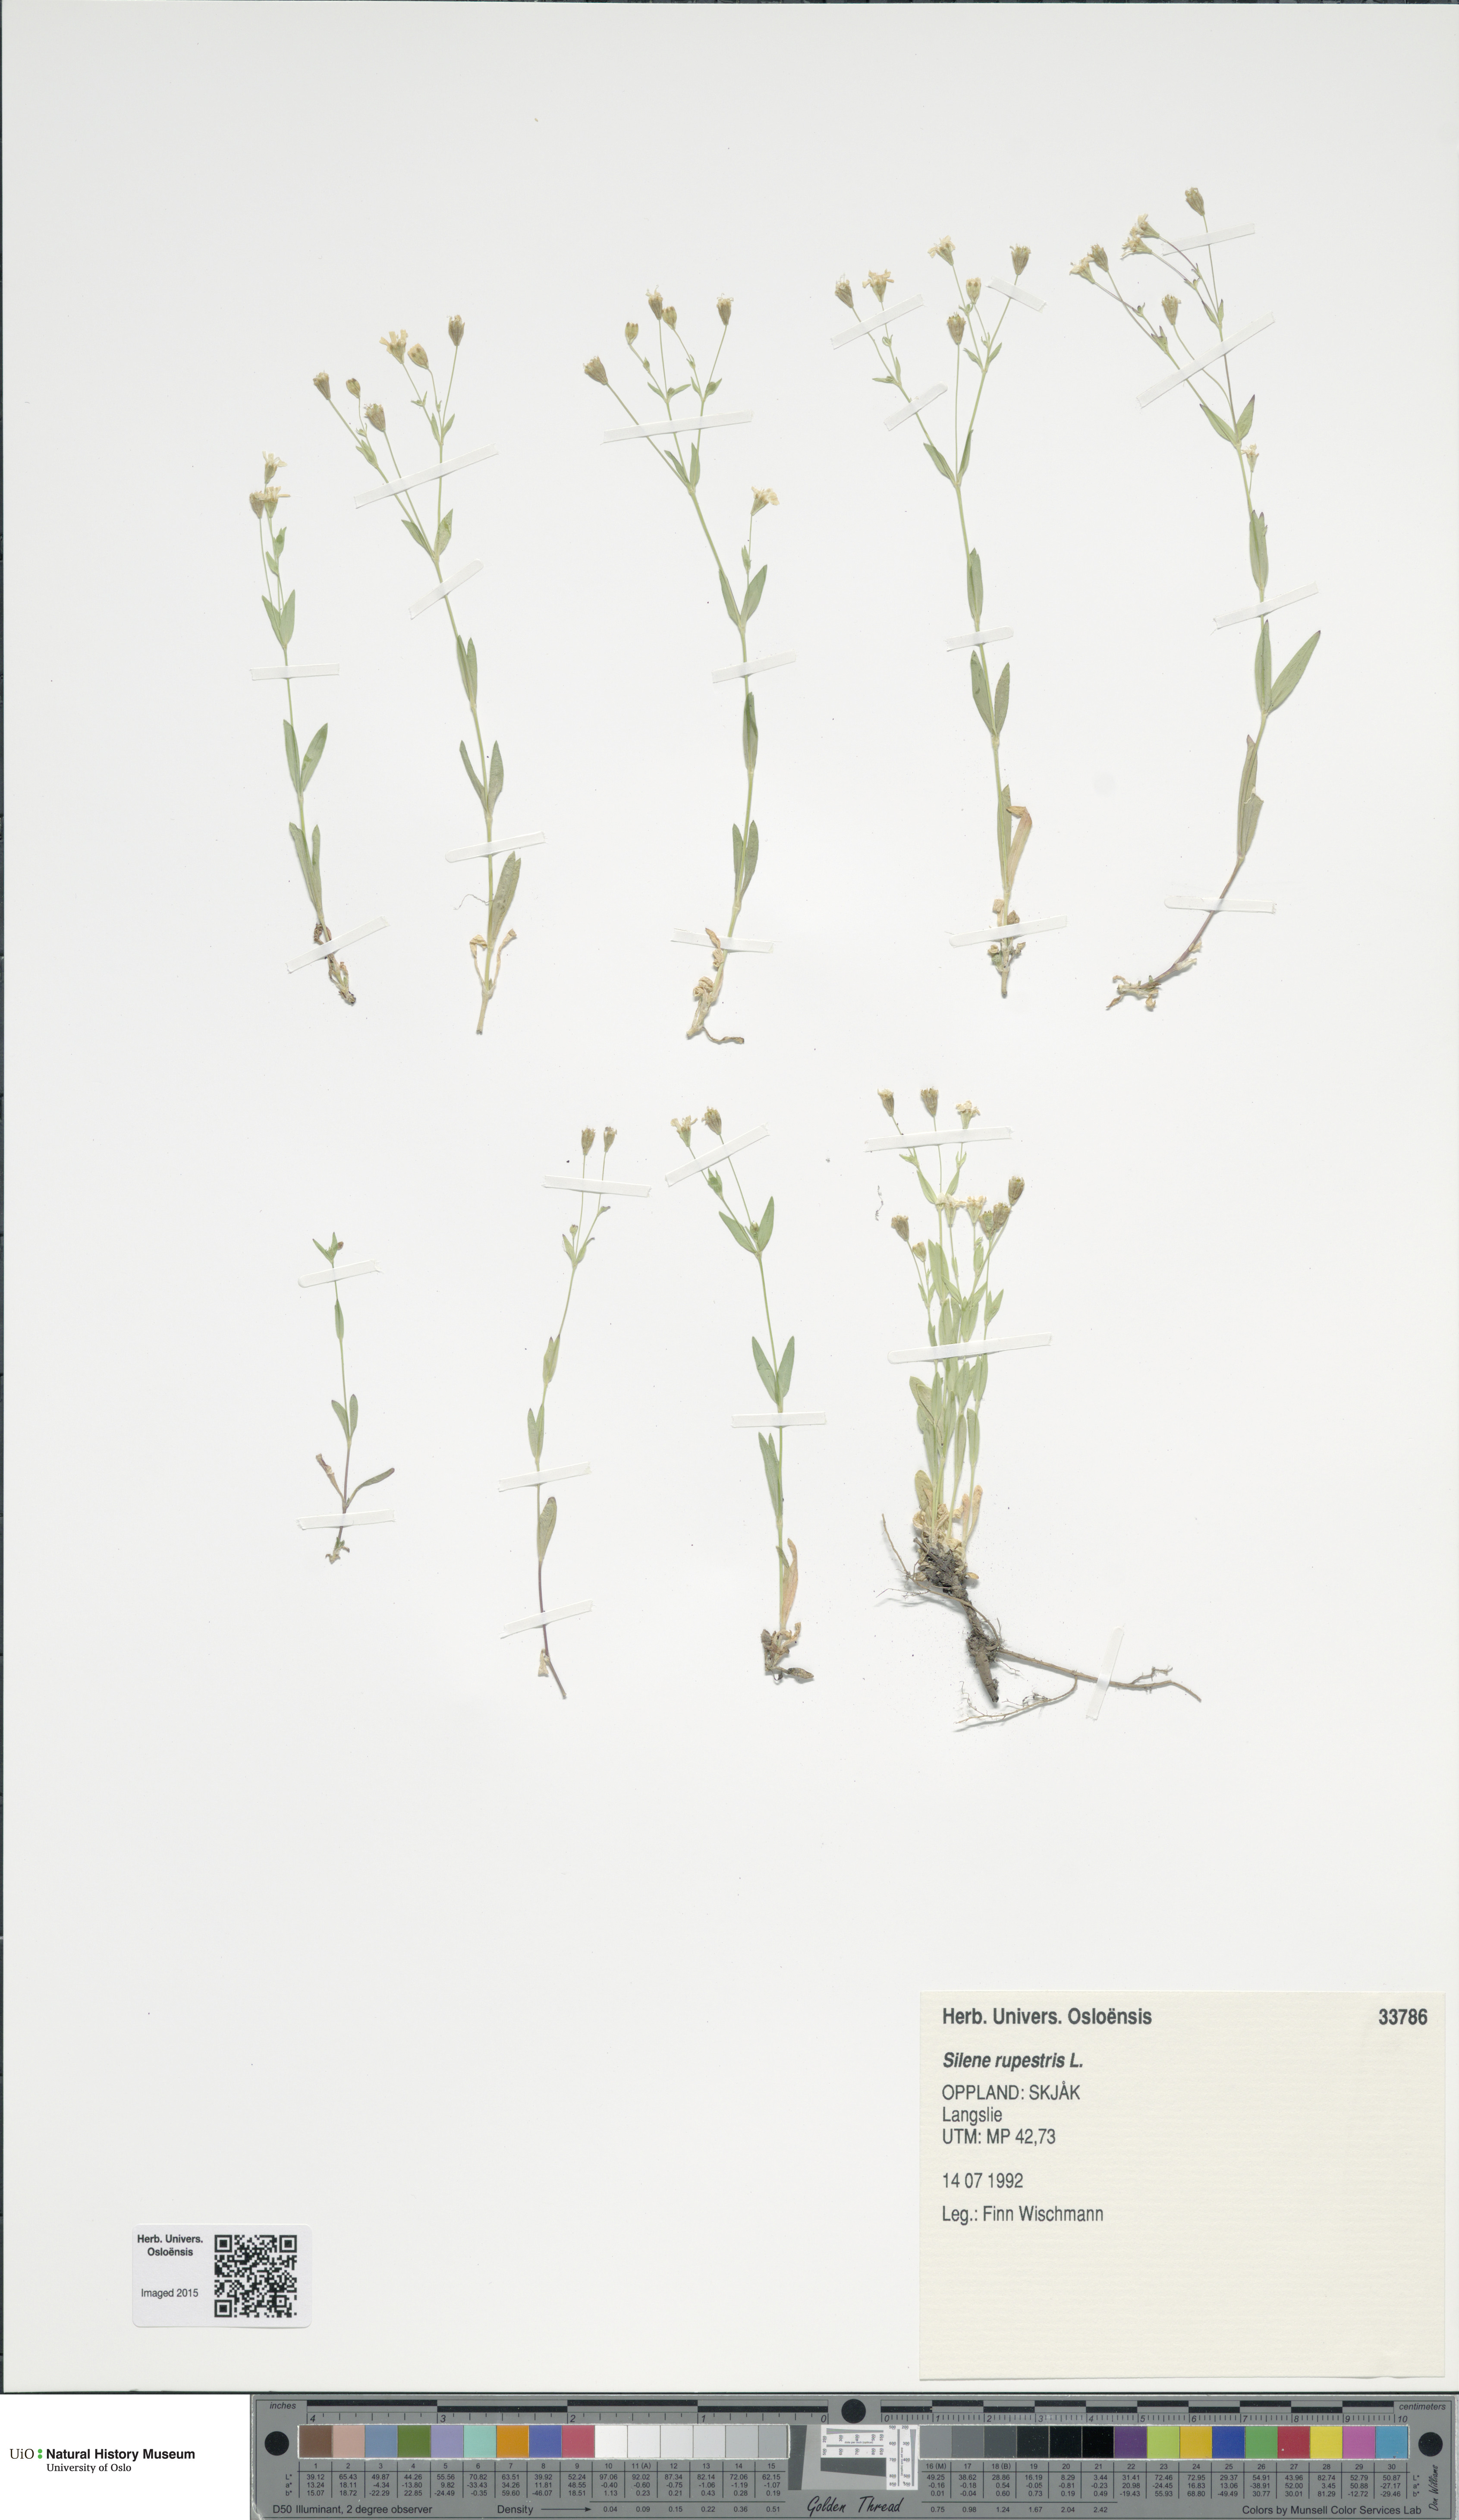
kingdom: Plantae
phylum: Tracheophyta
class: Magnoliopsida
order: Caryophyllales
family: Caryophyllaceae
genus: Atocion
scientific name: Atocion rupestre
